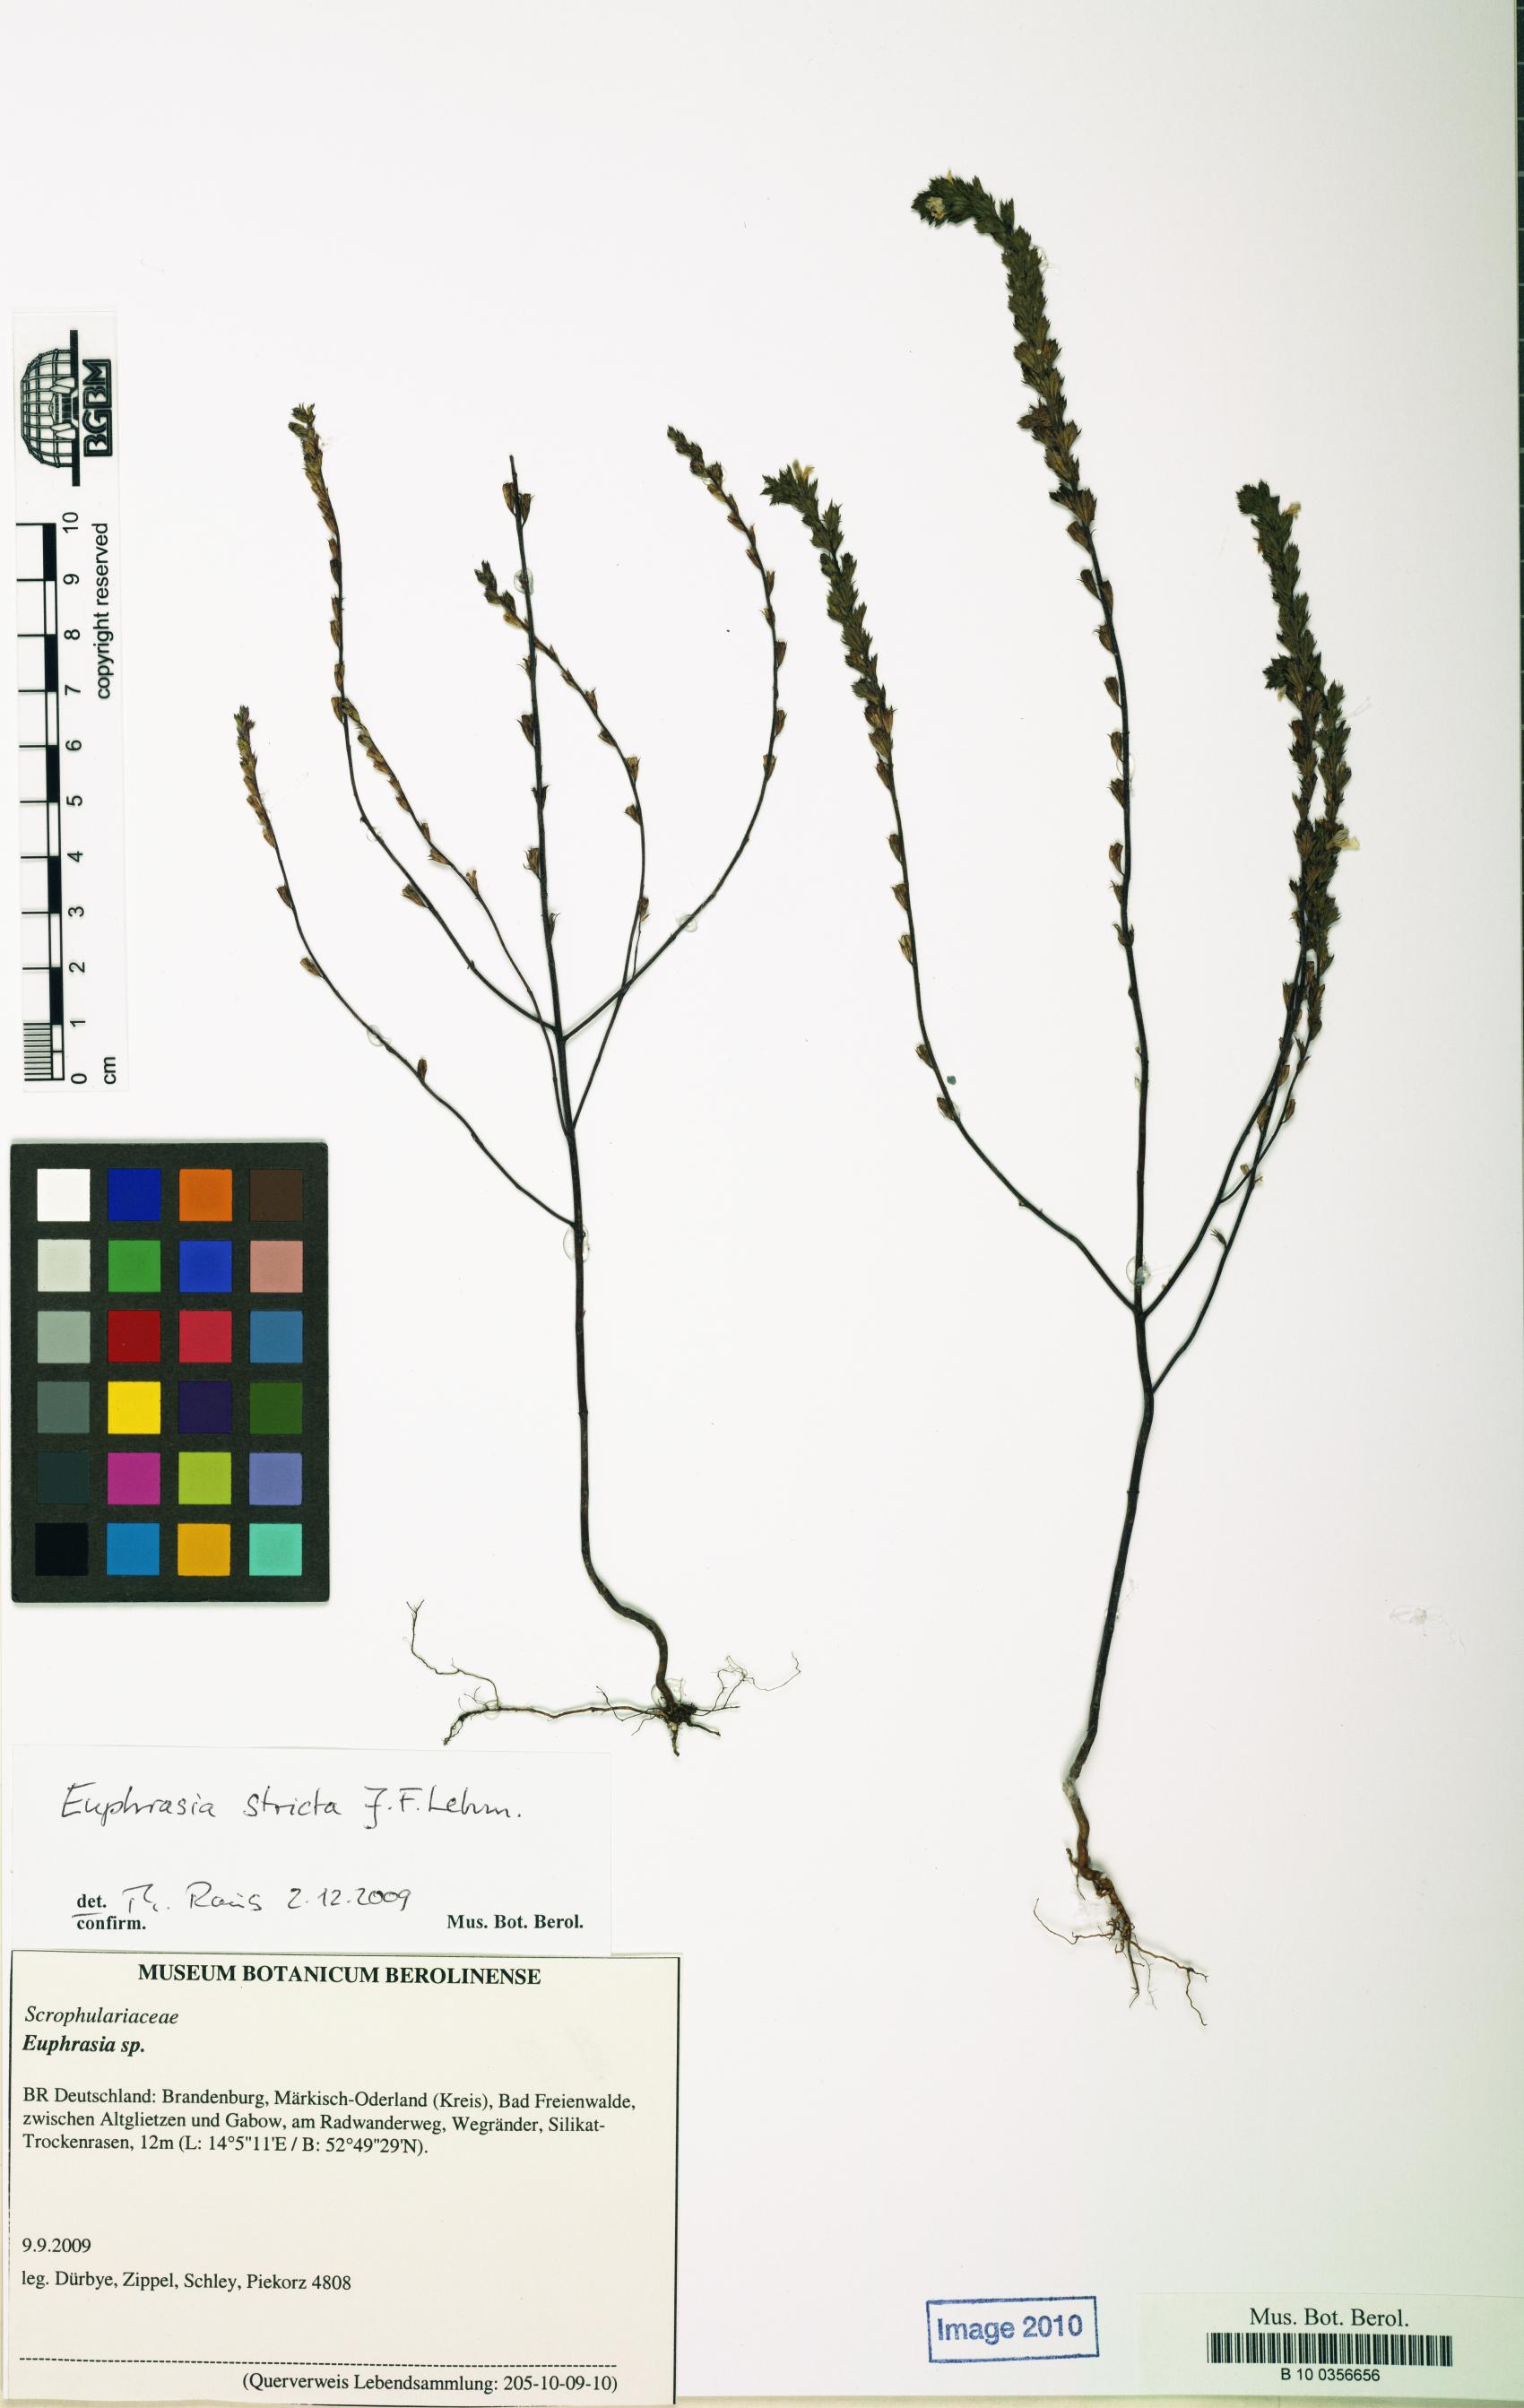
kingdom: Plantae
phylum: Tracheophyta
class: Magnoliopsida
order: Lamiales
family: Orobanchaceae
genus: Euphrasia
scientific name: Euphrasia stricta
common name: Drug eyebright
